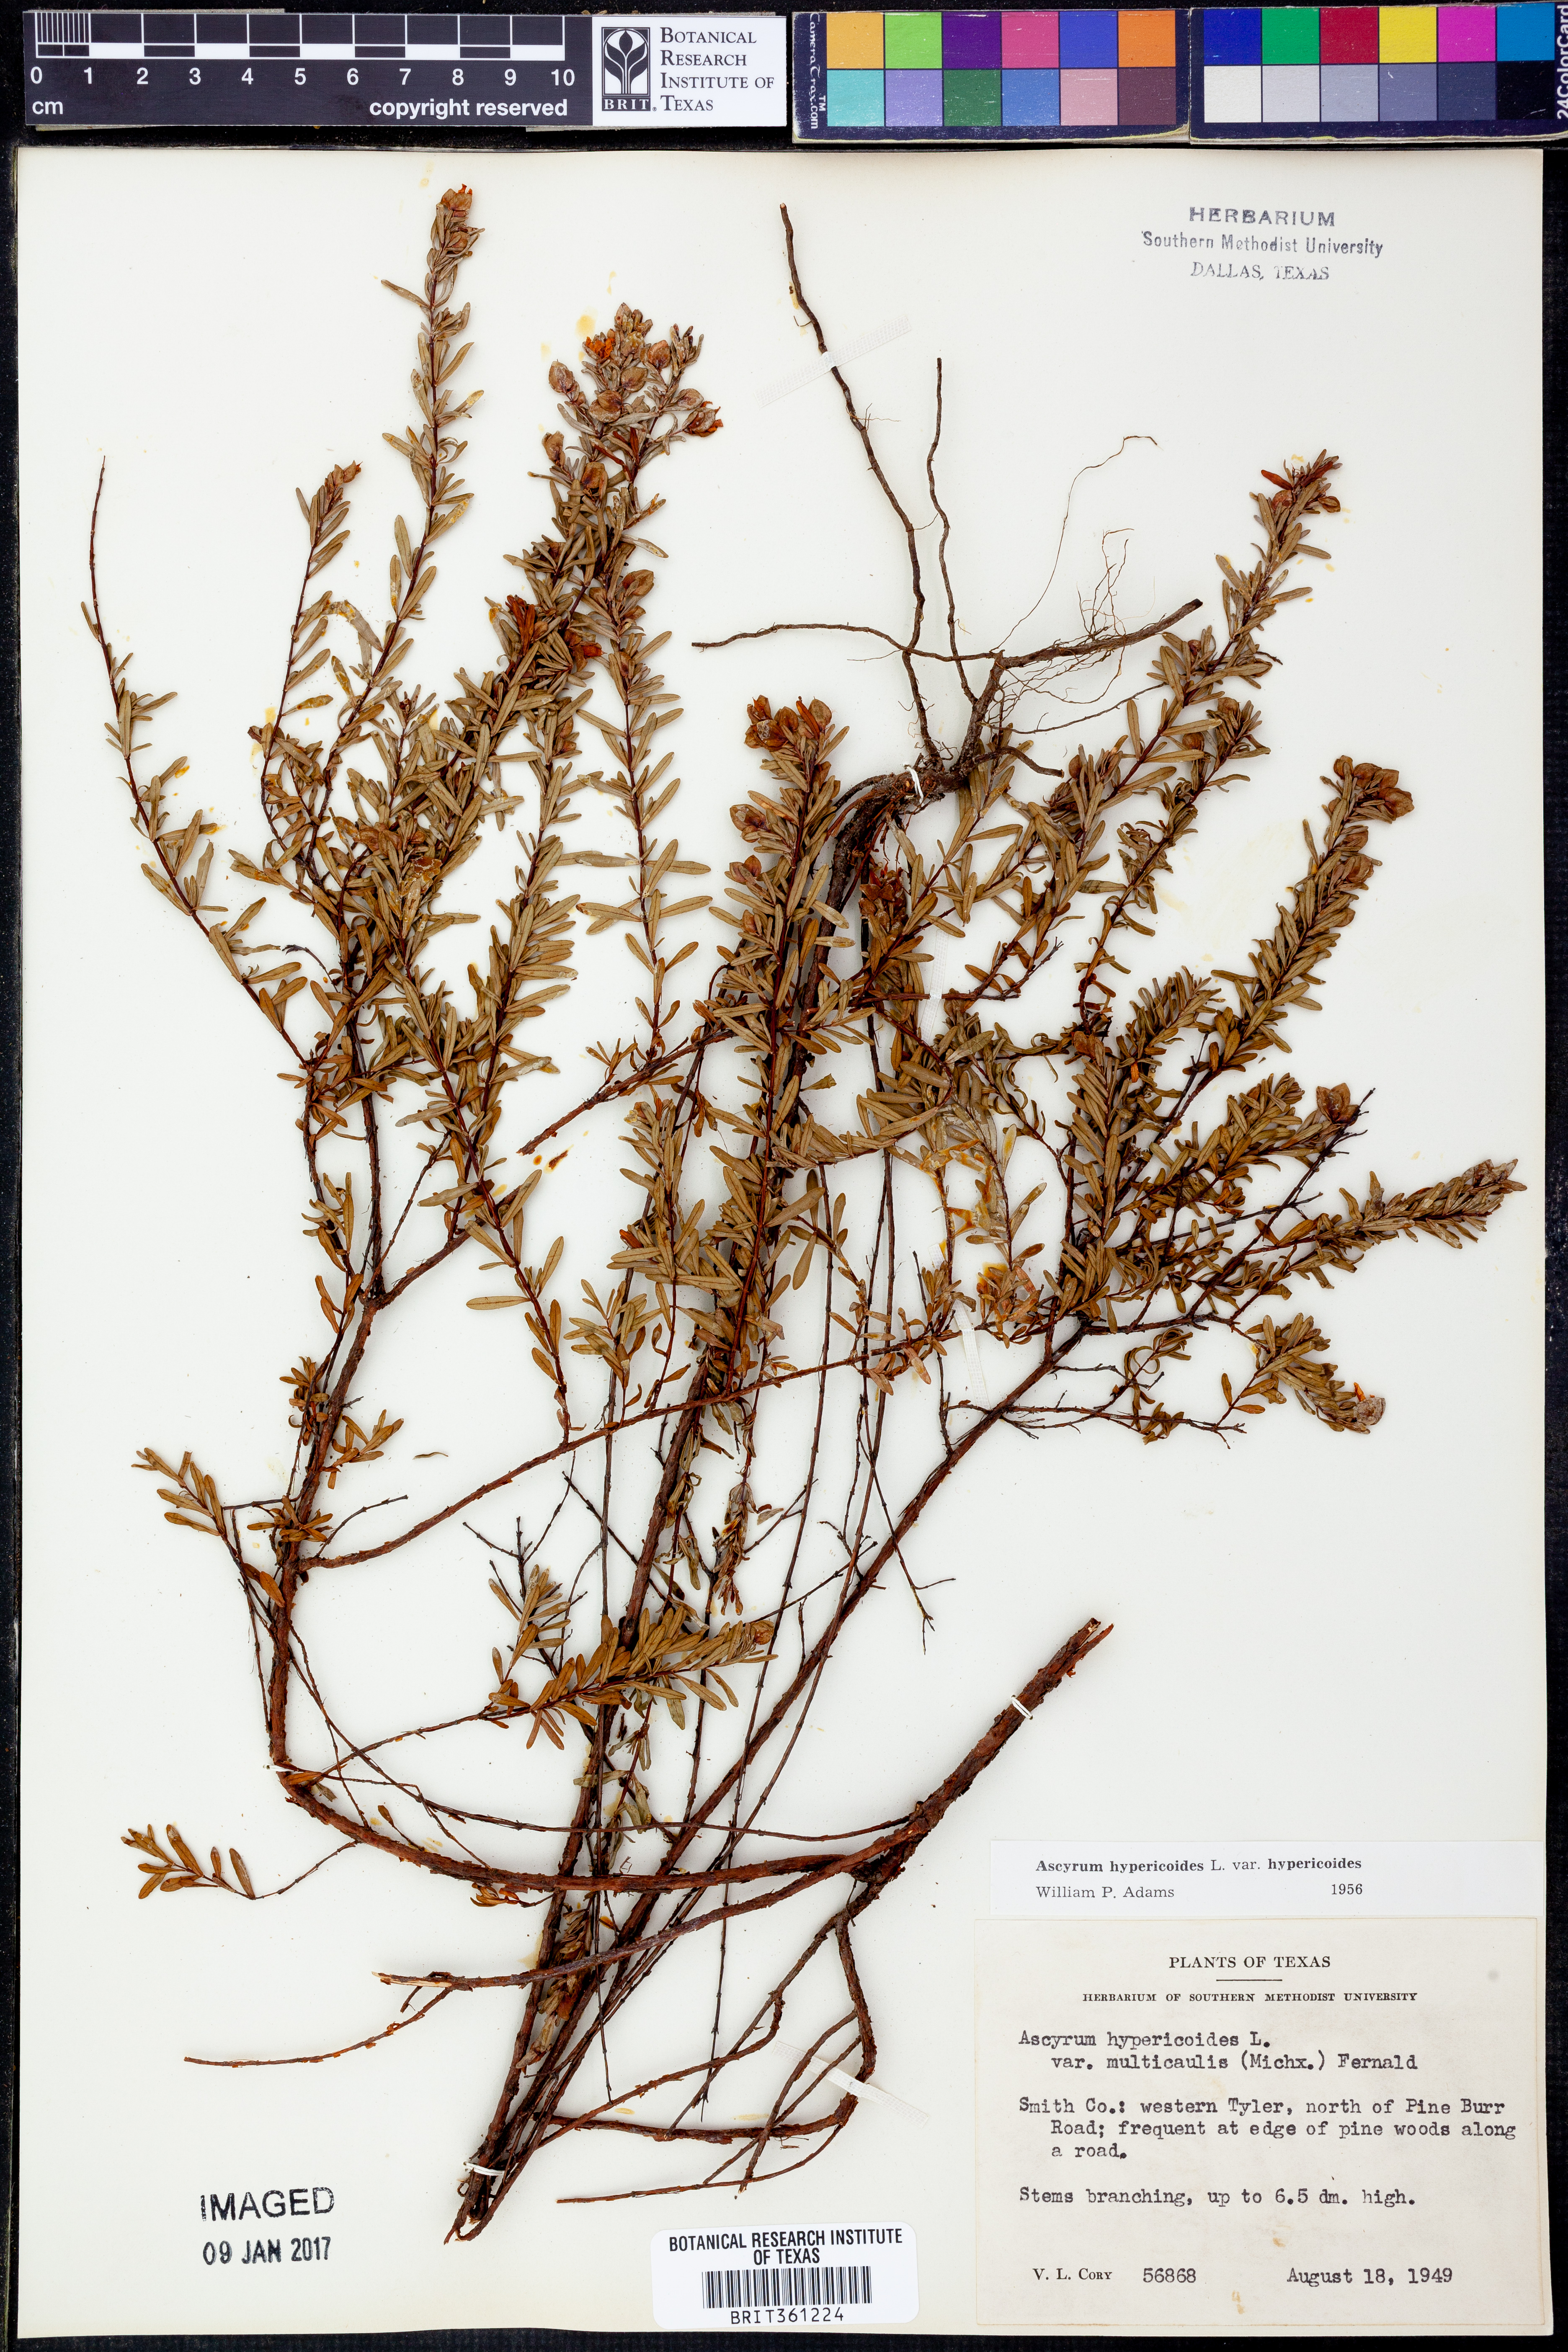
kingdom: Plantae
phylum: Tracheophyta
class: Magnoliopsida
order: Malpighiales
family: Hypericaceae
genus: Hypericum
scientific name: Hypericum hypericoides
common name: St. andrew's cross
